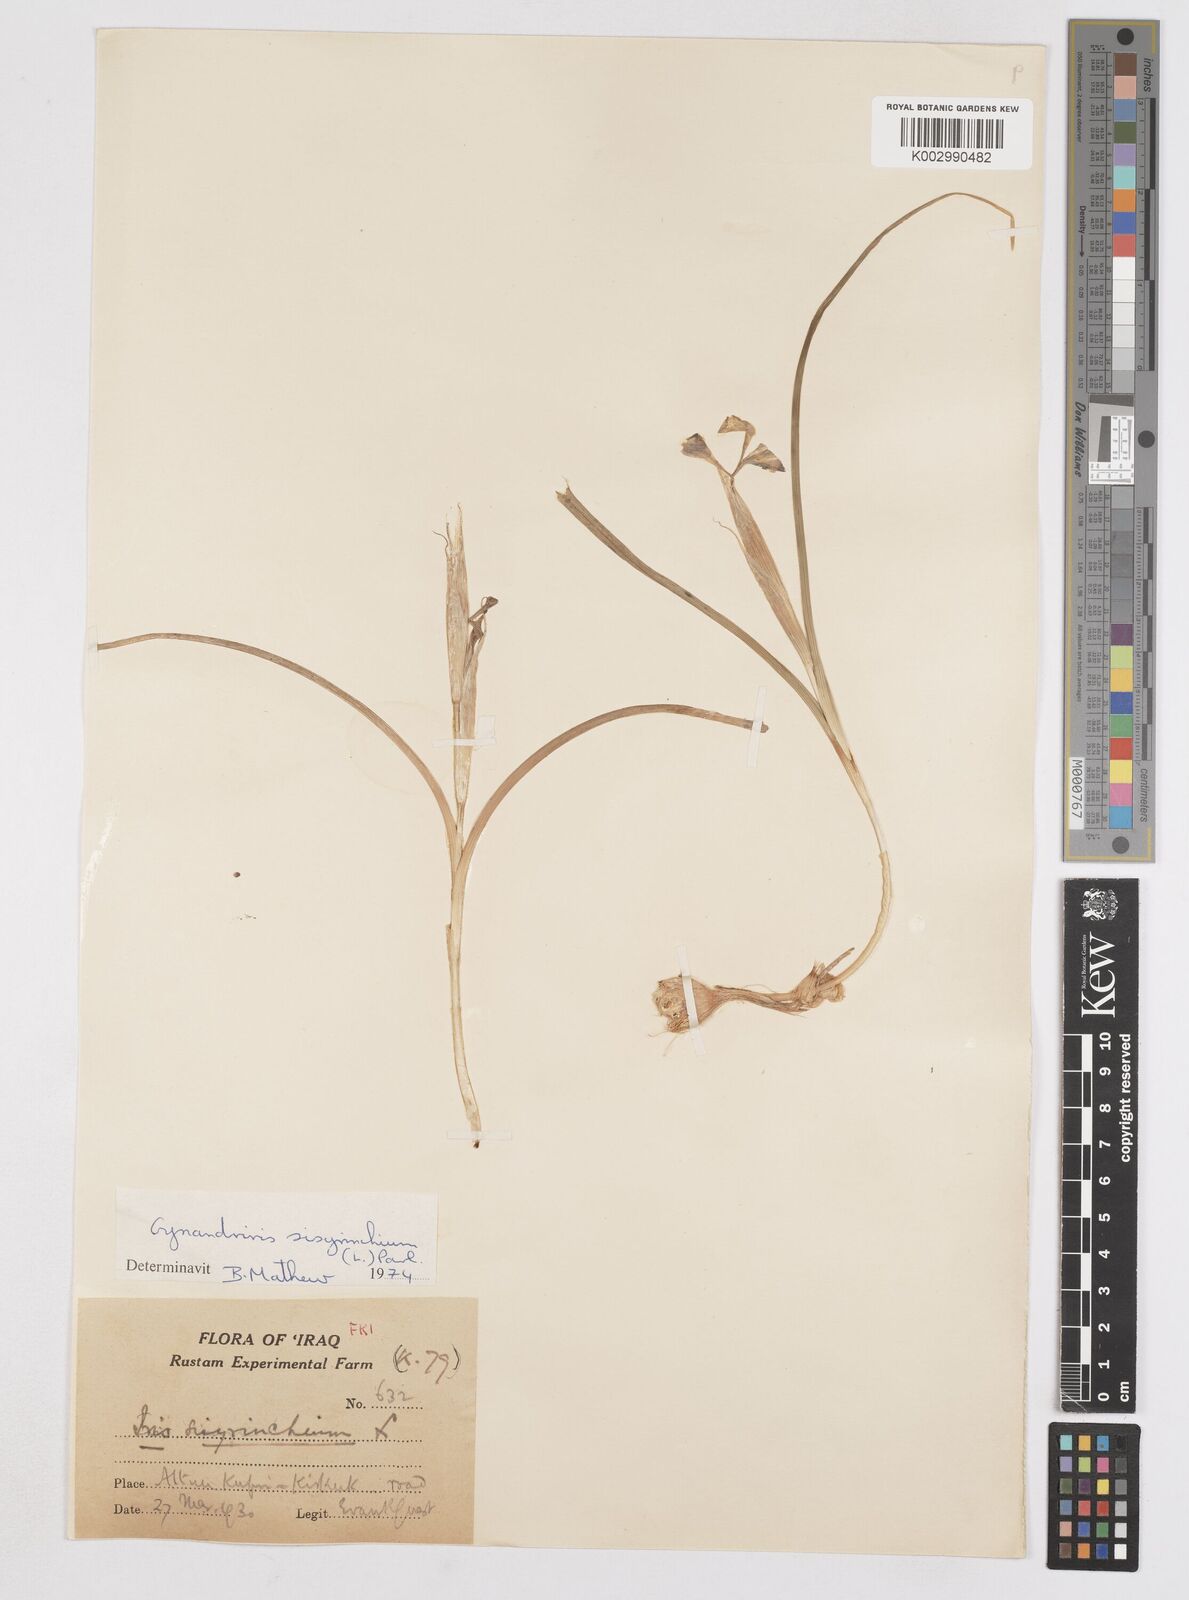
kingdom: Plantae
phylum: Tracheophyta
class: Liliopsida
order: Asparagales
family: Iridaceae
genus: Moraea
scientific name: Moraea sisyrinchium
